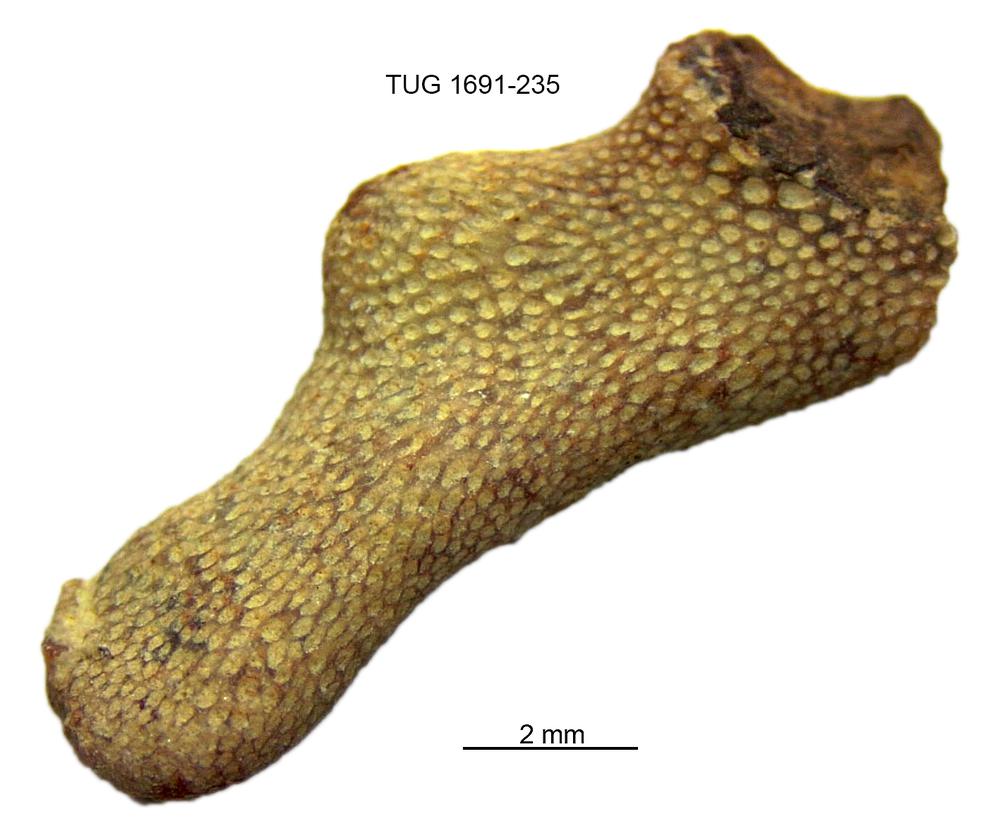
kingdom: Animalia
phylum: Bryozoa
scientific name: Bryozoa
